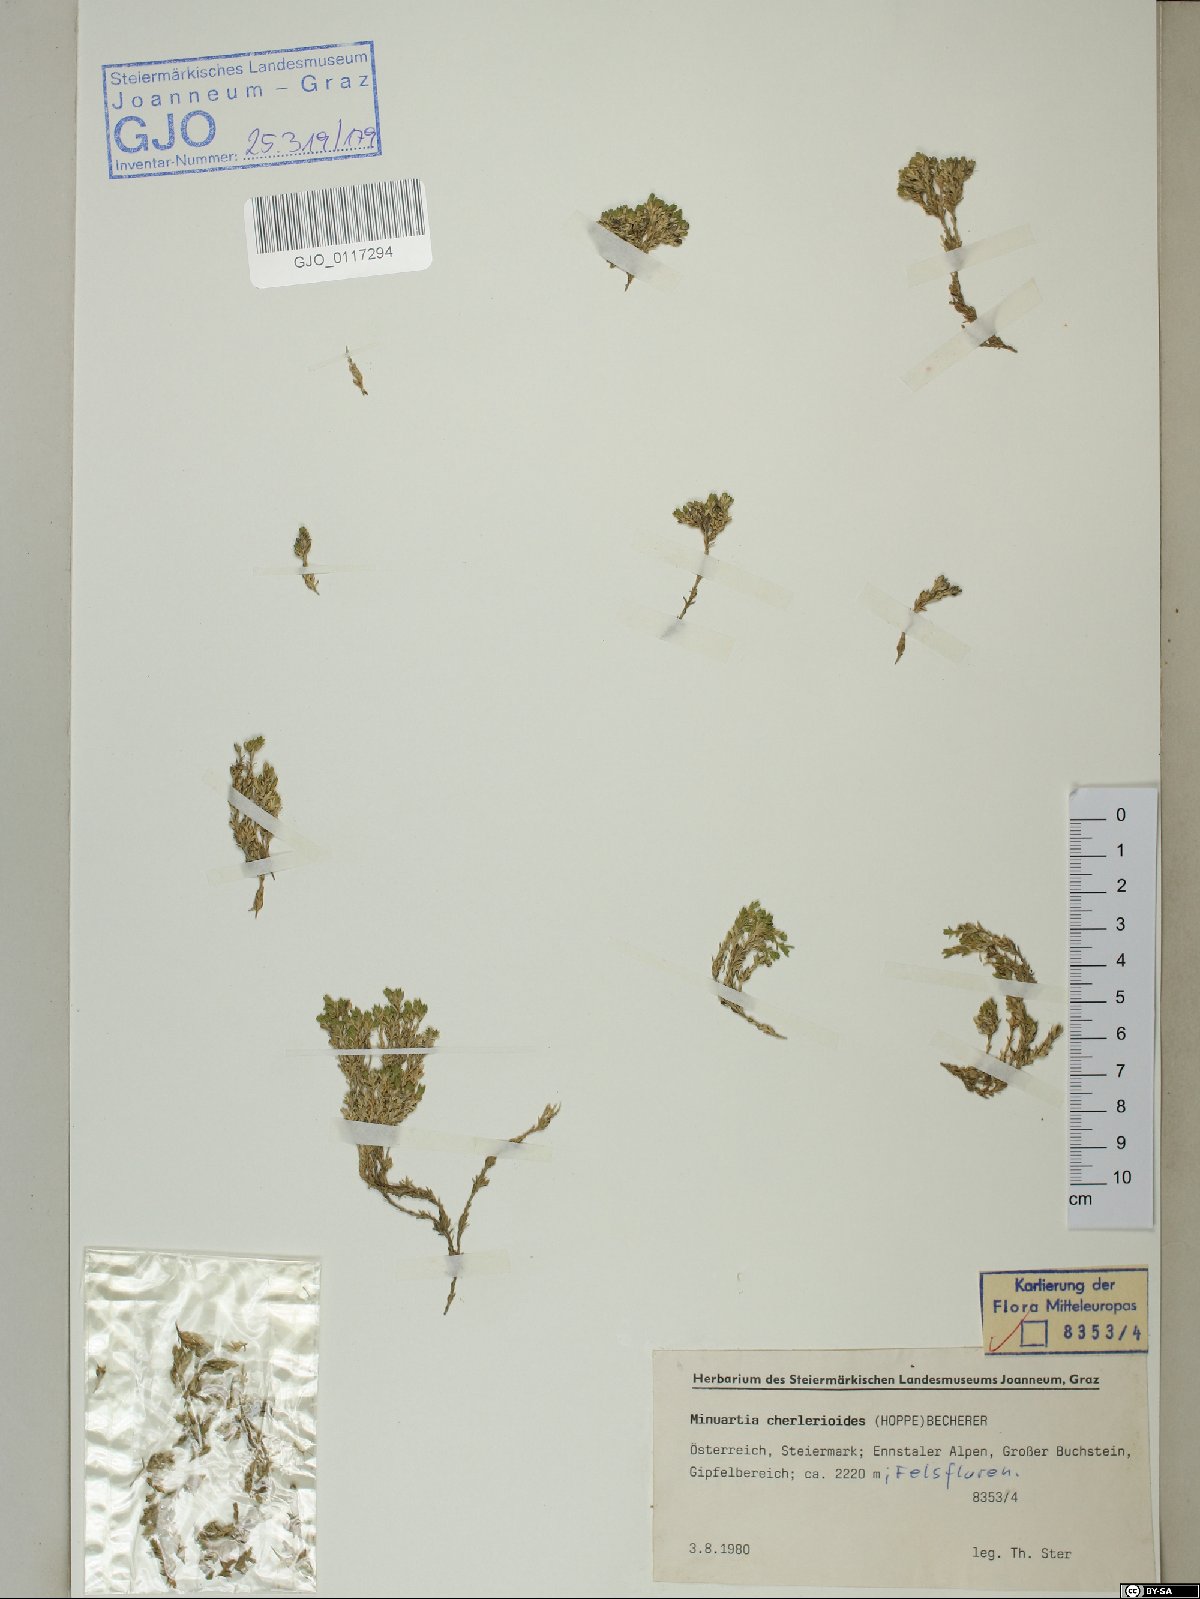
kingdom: Plantae
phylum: Tracheophyta
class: Magnoliopsida
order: Caryophyllales
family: Caryophyllaceae
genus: Facchinia
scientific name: Facchinia cherlerioides
